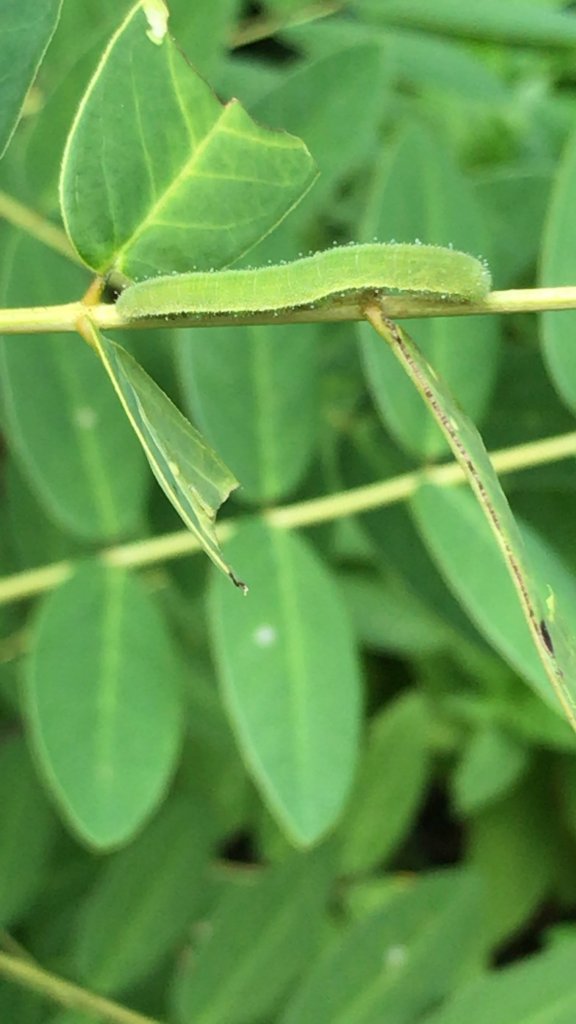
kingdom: Animalia
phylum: Arthropoda
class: Insecta
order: Lepidoptera
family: Pieridae
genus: Abaeis
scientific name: Abaeis nicippe
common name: Sleepy Orange
